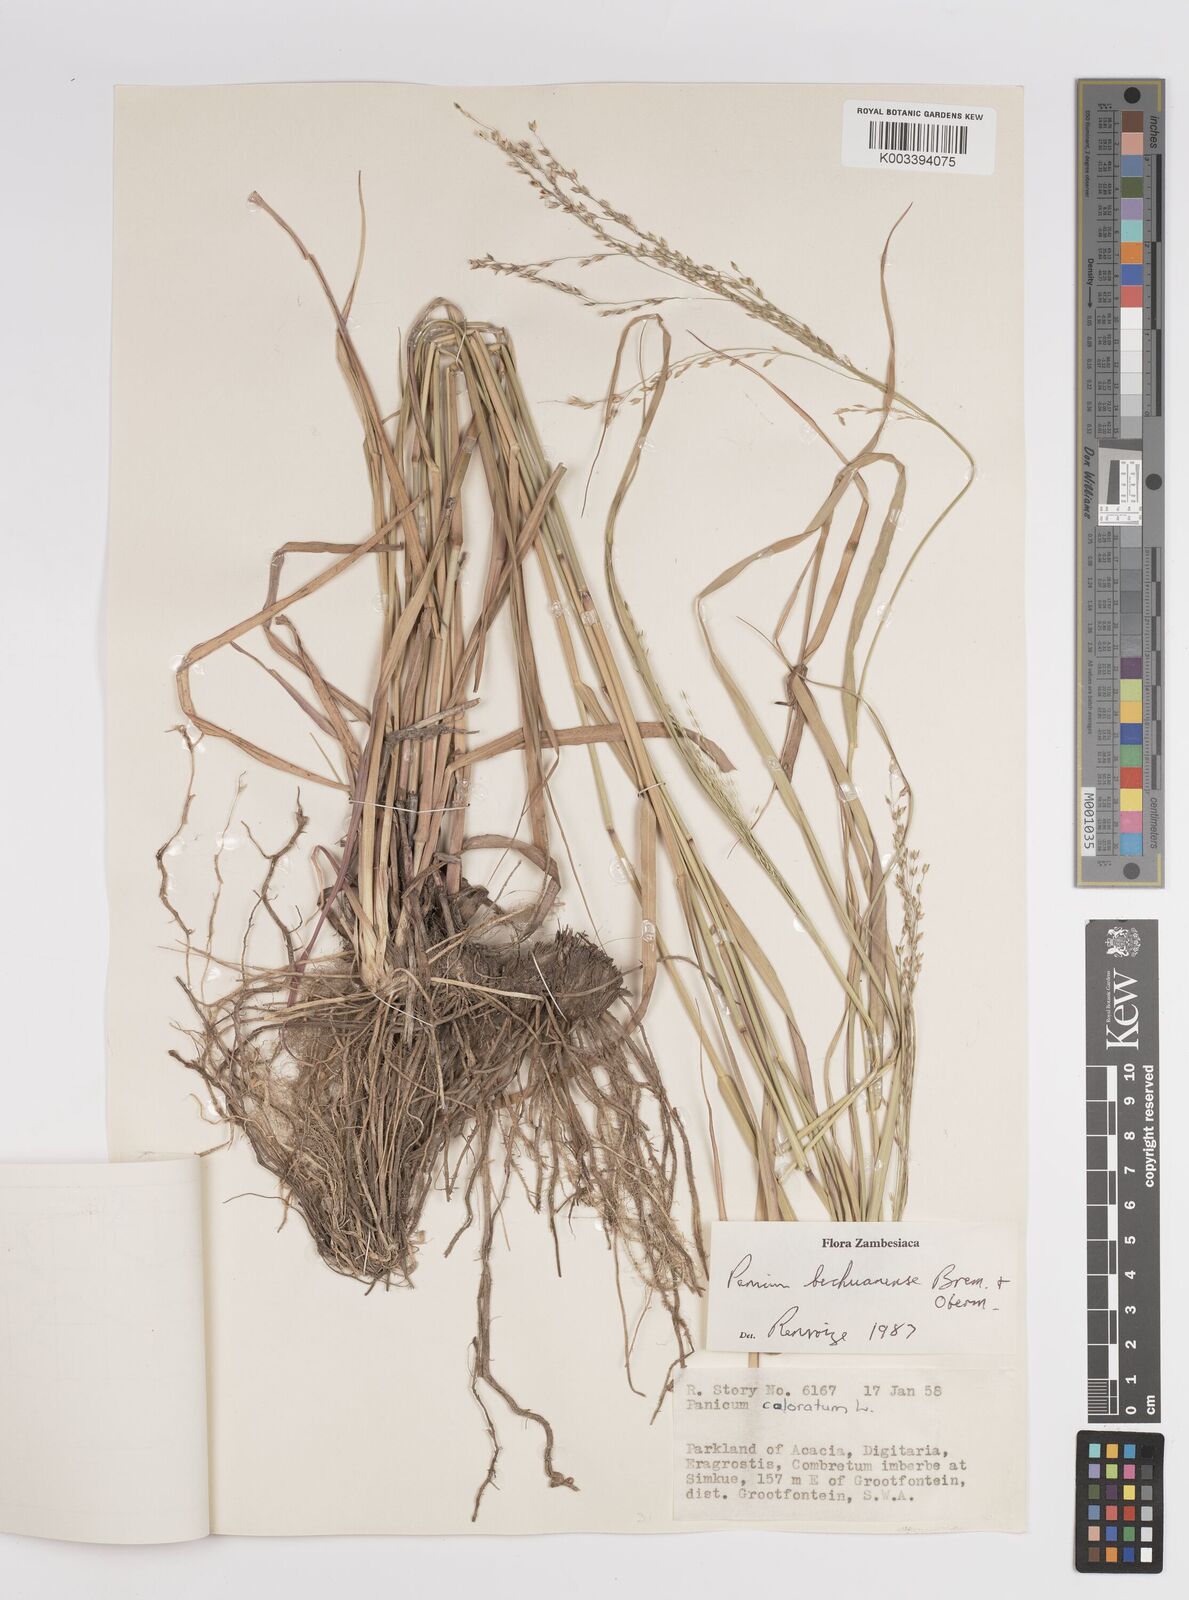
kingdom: Plantae
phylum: Tracheophyta
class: Liliopsida
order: Poales
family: Poaceae
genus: Panicum
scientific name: Panicum bechuanense
